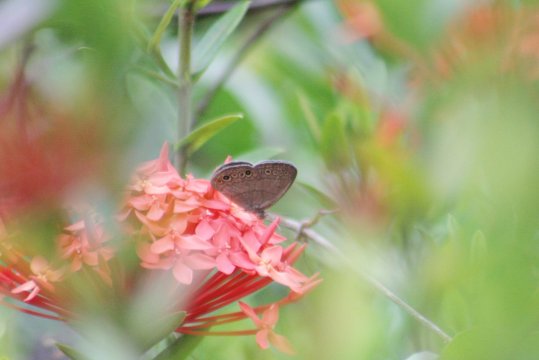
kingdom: Animalia
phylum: Arthropoda
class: Insecta
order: Lepidoptera
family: Nymphalidae
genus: Hermeuptychia
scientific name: Hermeuptychia harmonia
